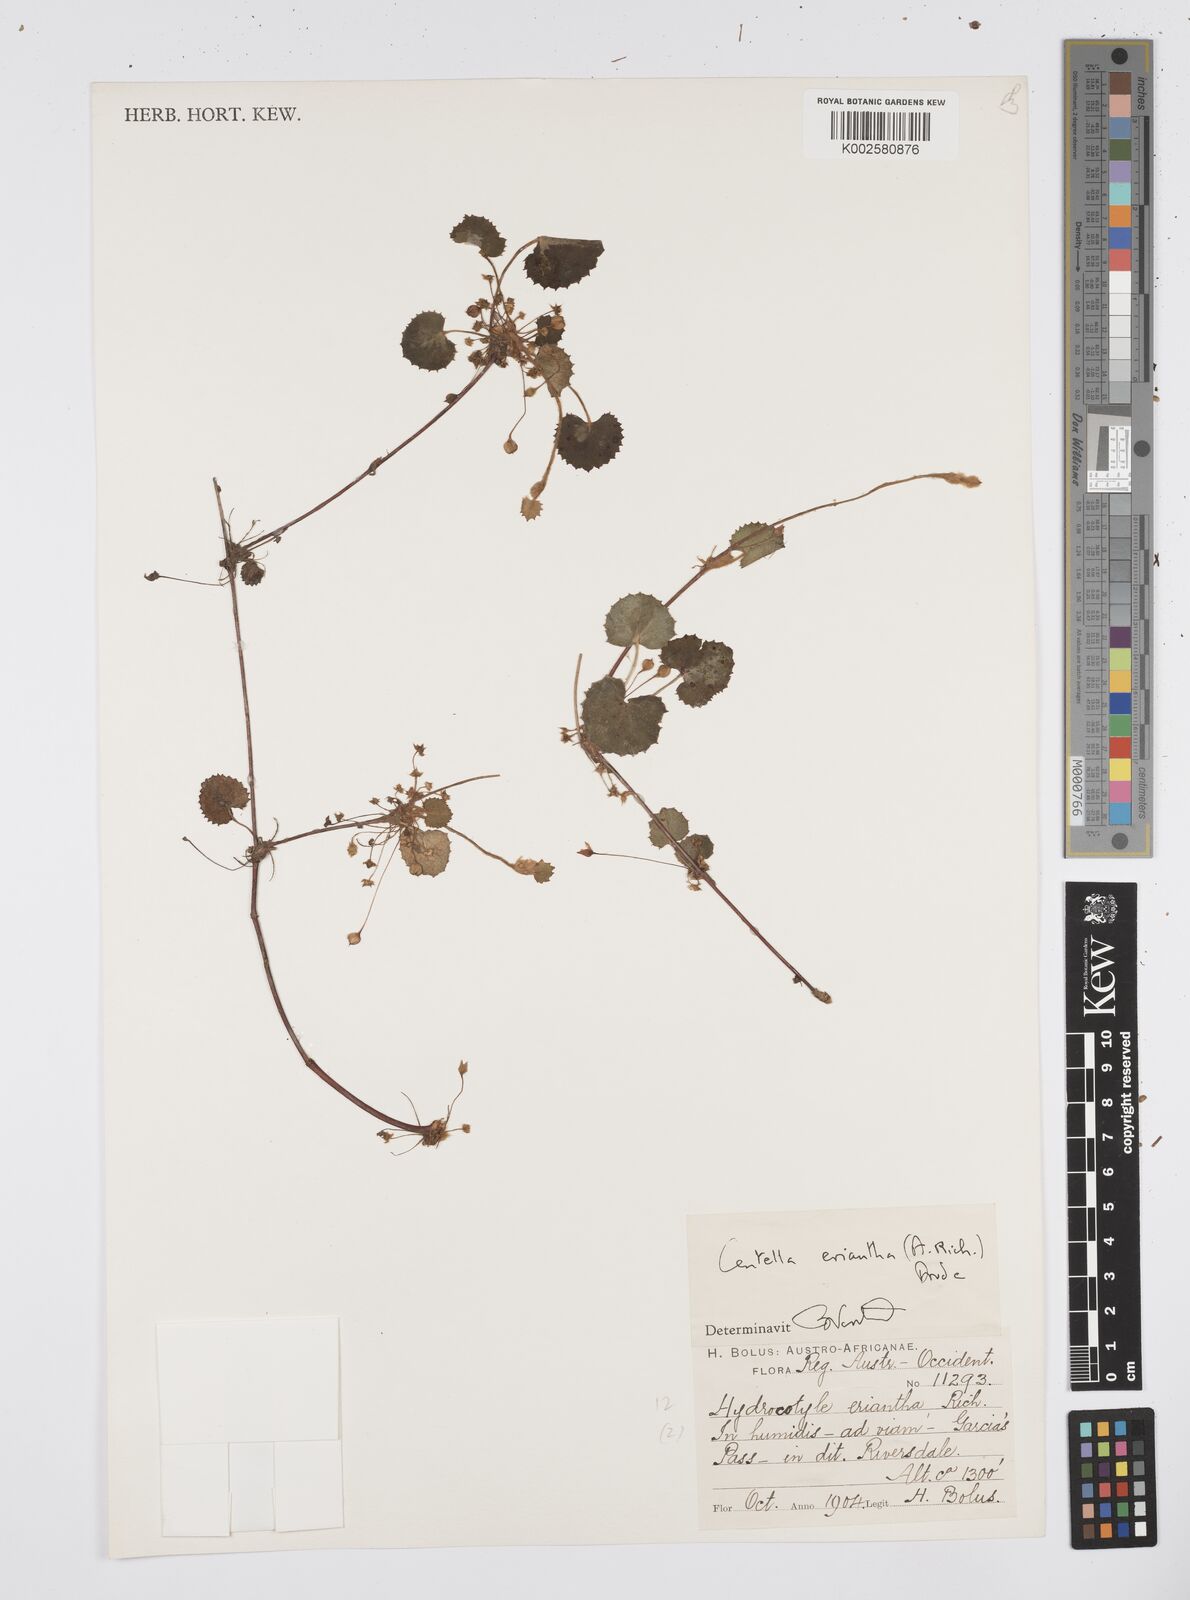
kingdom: Plantae
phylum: Tracheophyta
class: Magnoliopsida
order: Apiales
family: Apiaceae
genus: Centella
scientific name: Centella eriantha
